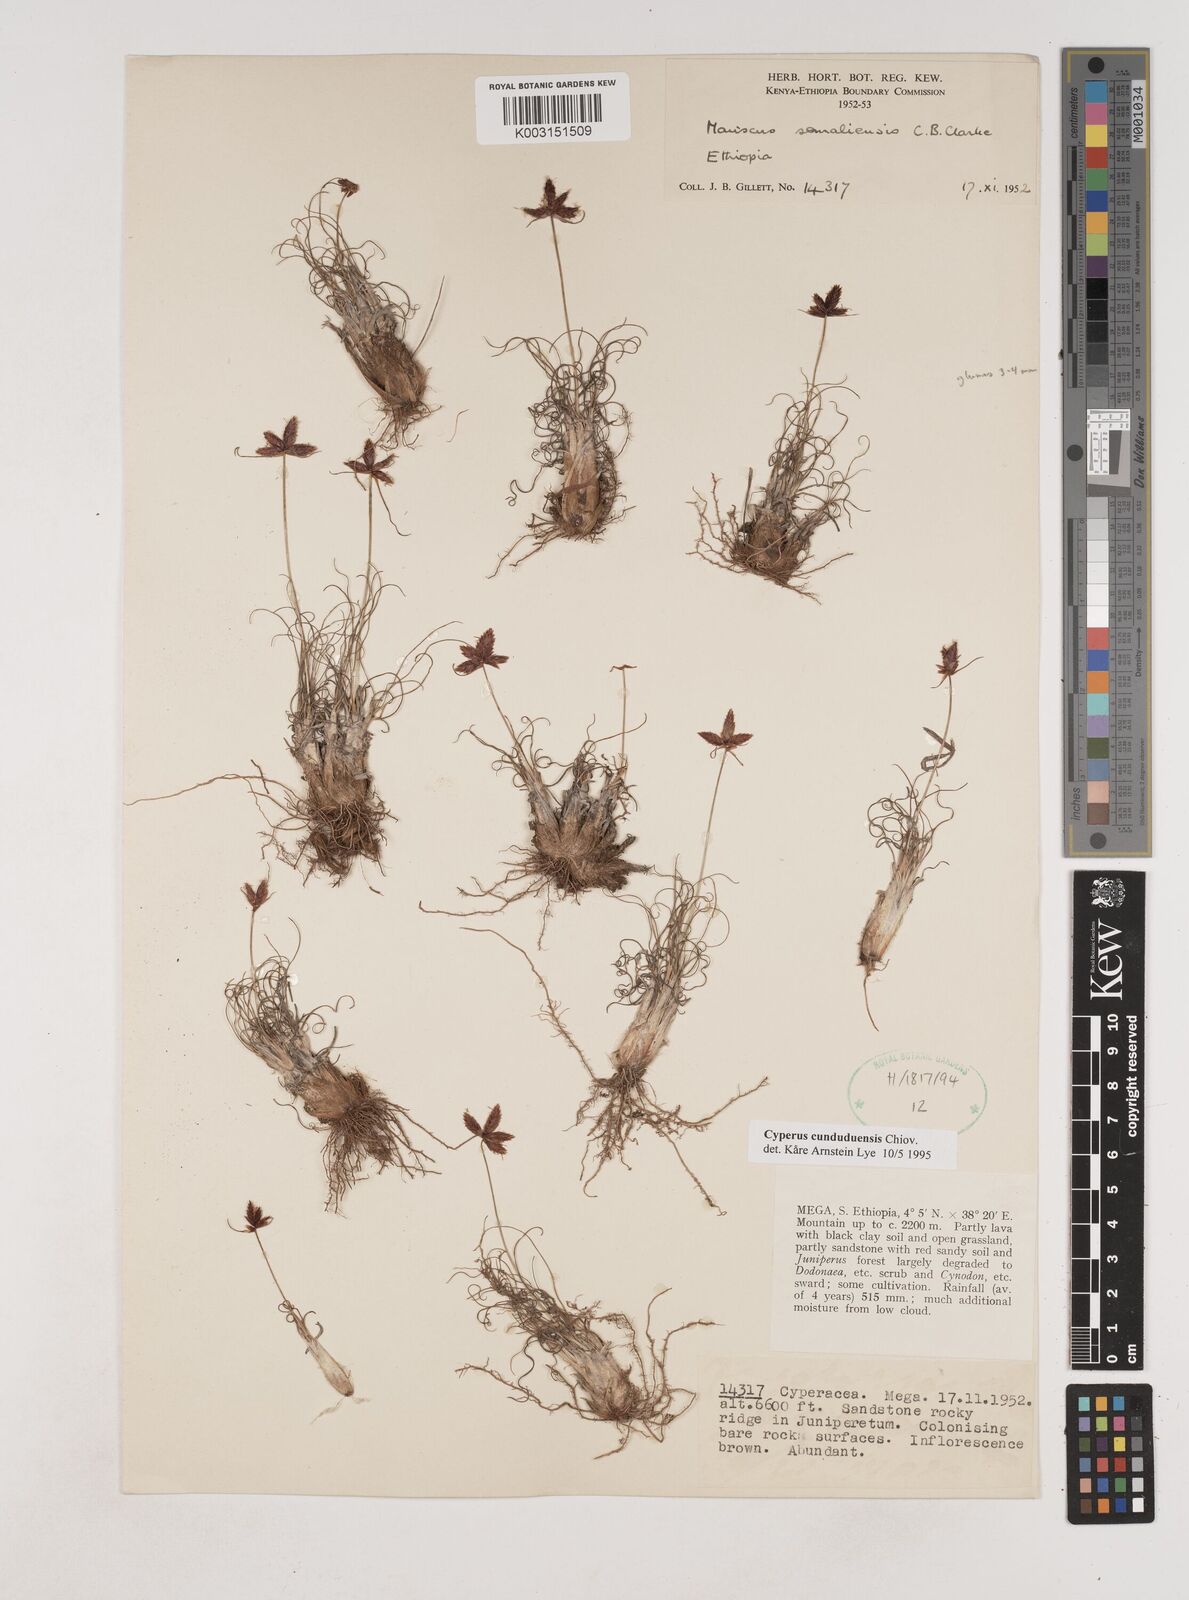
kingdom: Plantae
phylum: Tracheophyta
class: Liliopsida
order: Poales
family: Cyperaceae
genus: Cyperus
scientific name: Cyperus
